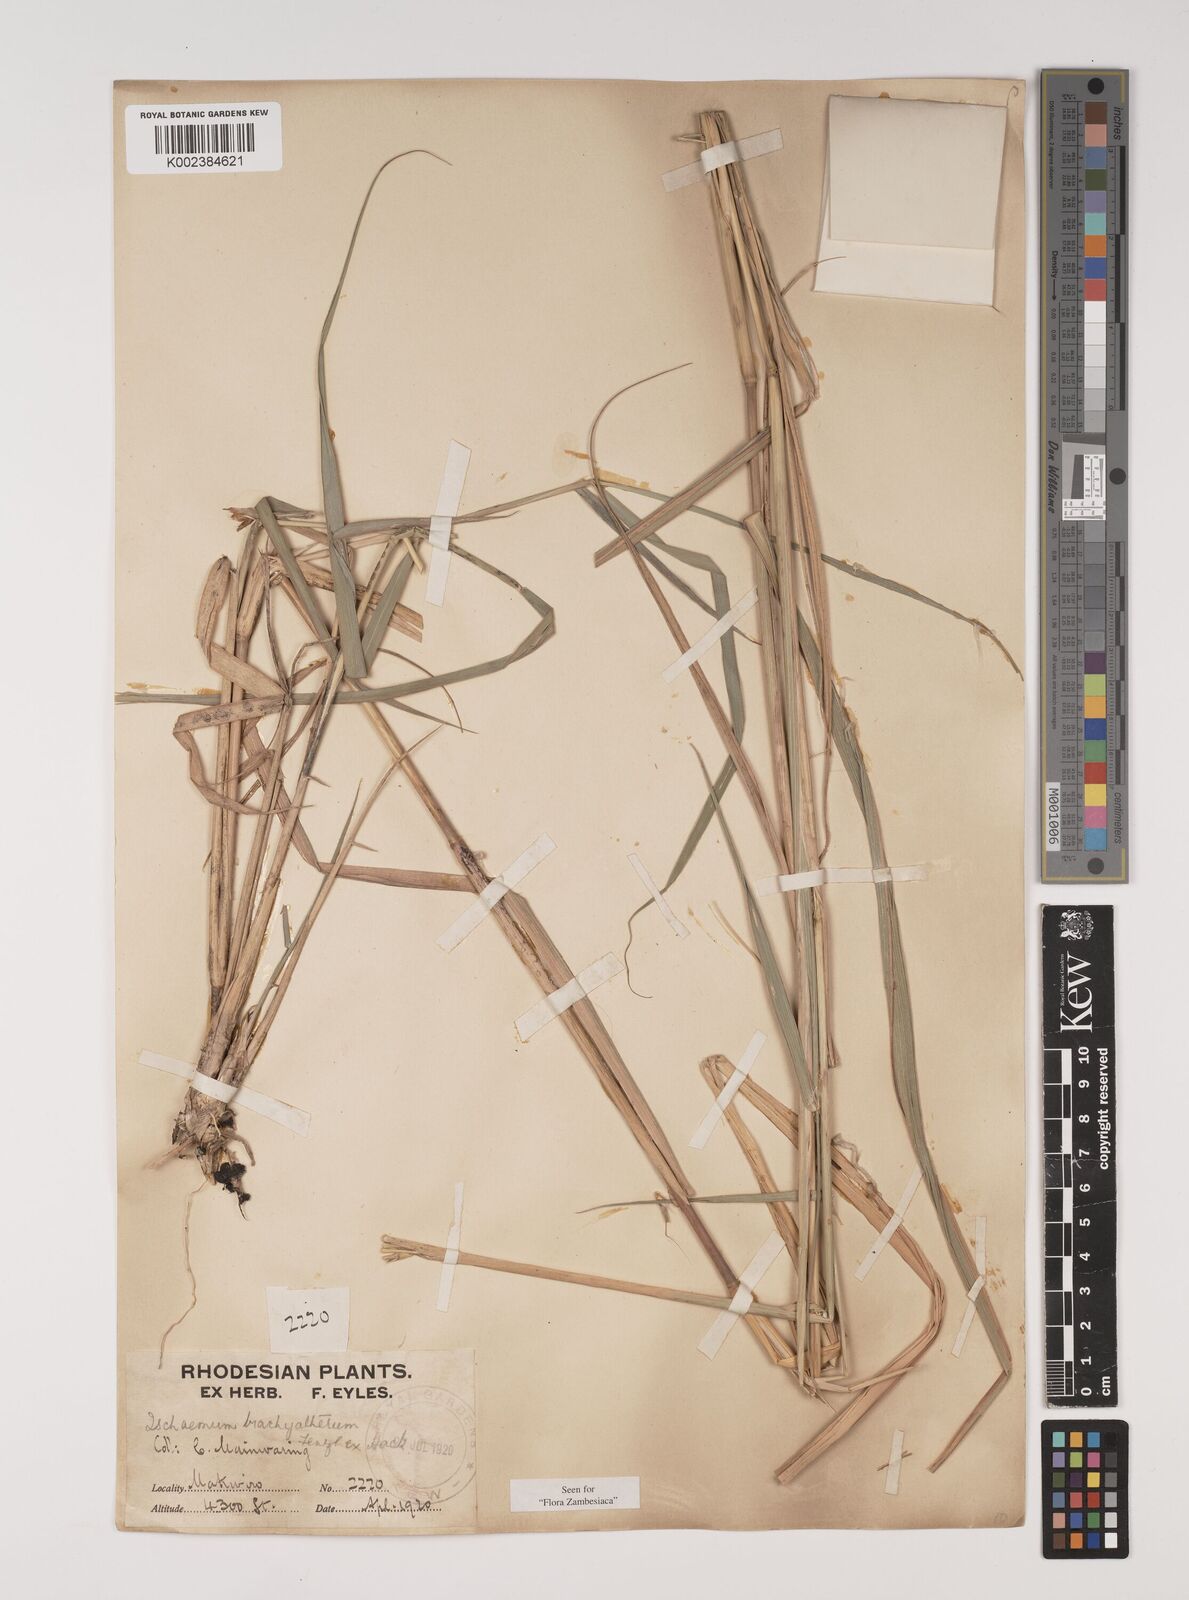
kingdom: Plantae
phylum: Tracheophyta
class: Liliopsida
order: Poales
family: Poaceae
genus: Ischaemum
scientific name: Ischaemum afrum
